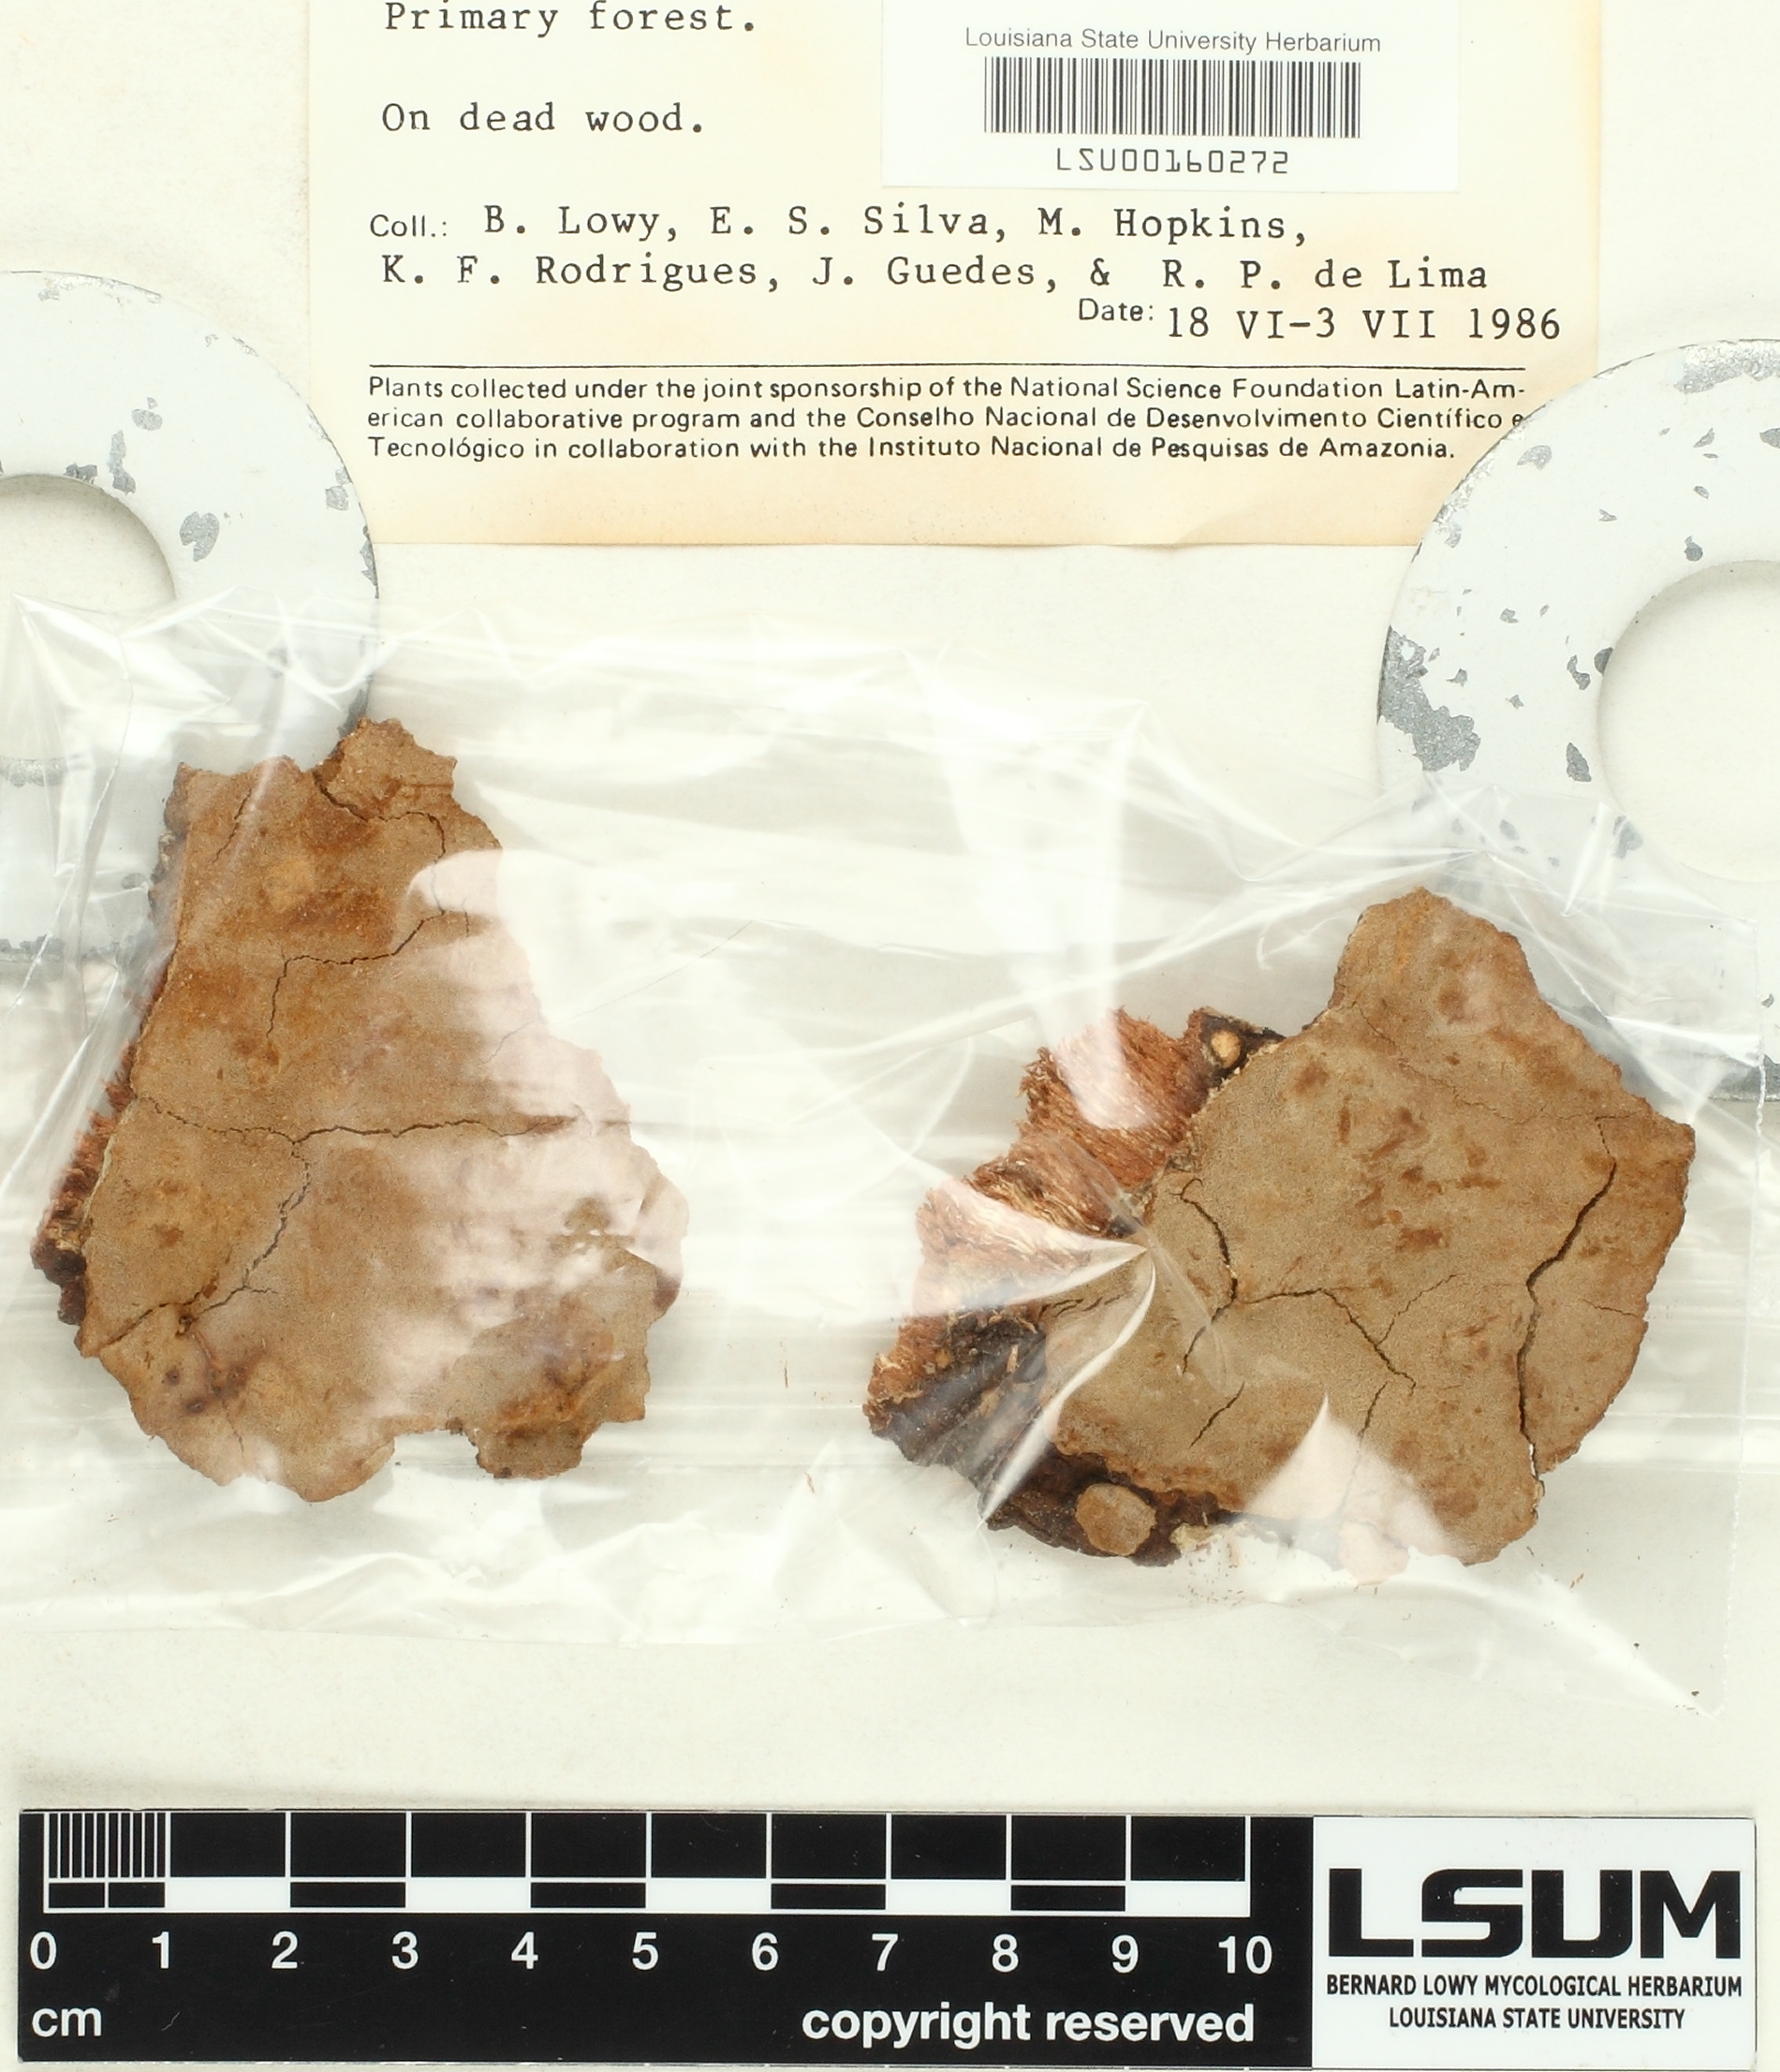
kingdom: Fungi
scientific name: Fungi
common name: Fungi
